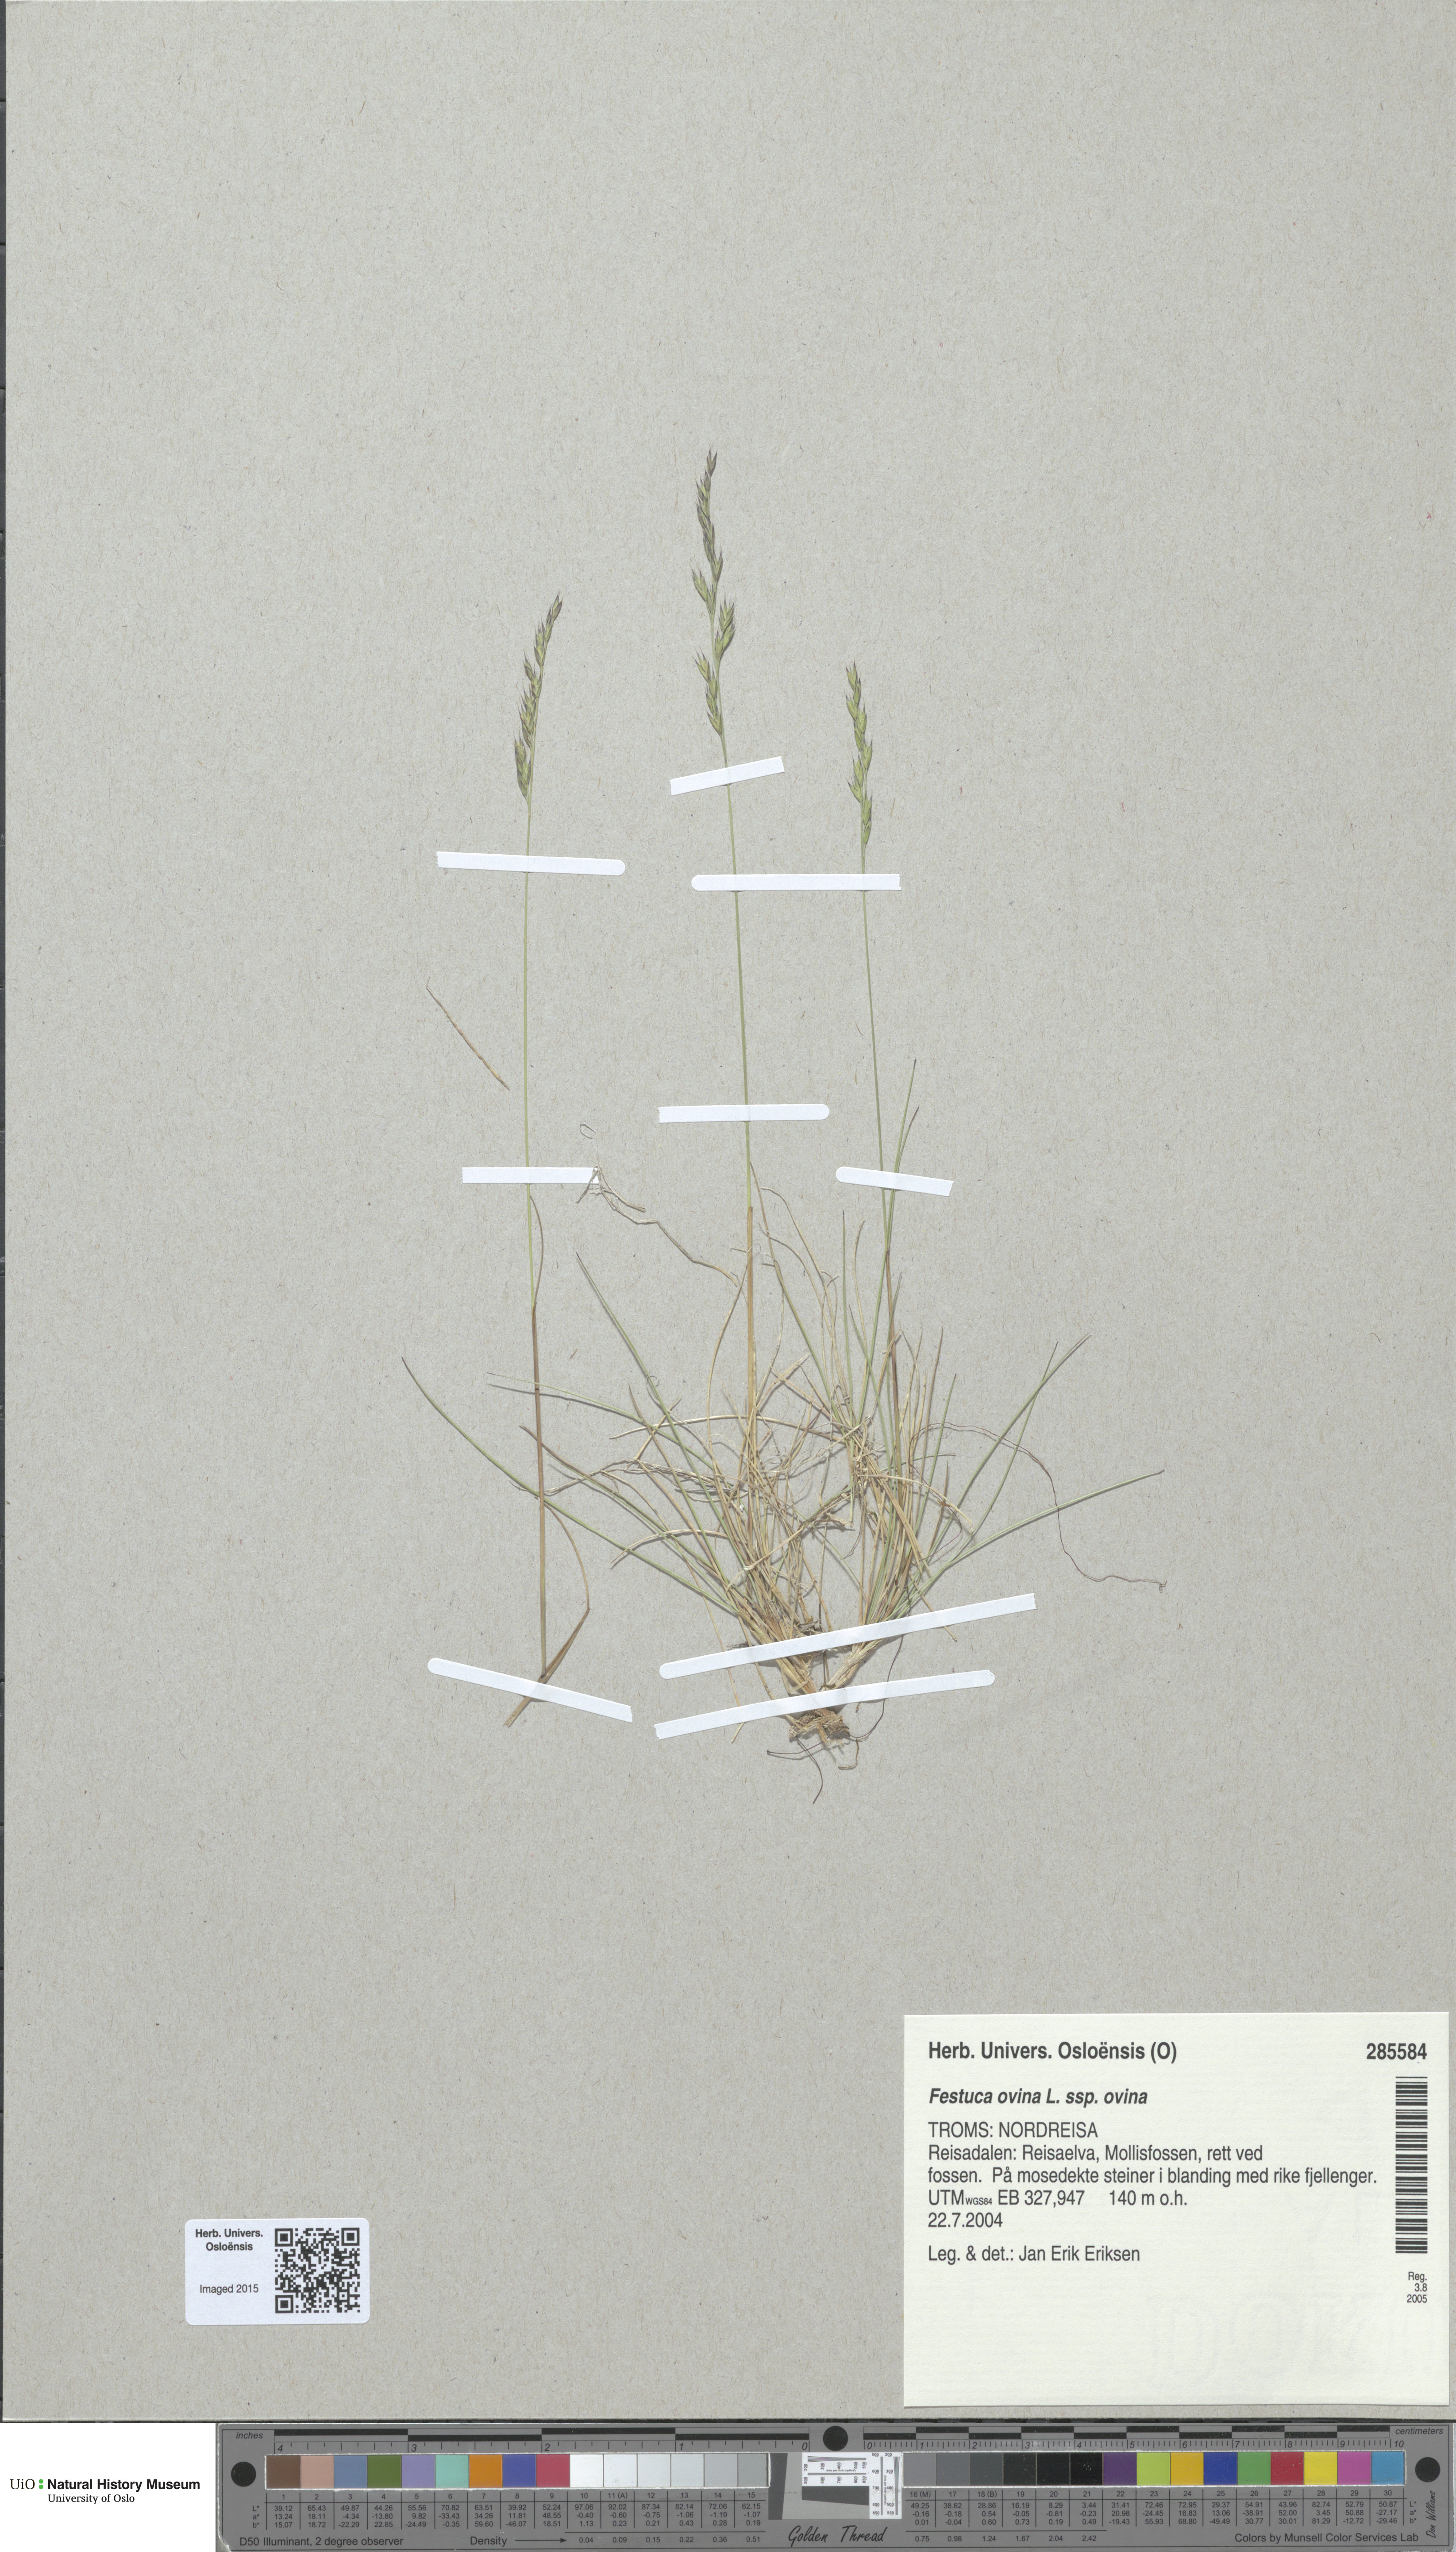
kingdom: Plantae
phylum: Tracheophyta
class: Liliopsida
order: Poales
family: Poaceae
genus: Festuca
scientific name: Festuca ovina
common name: Sheep fescue
